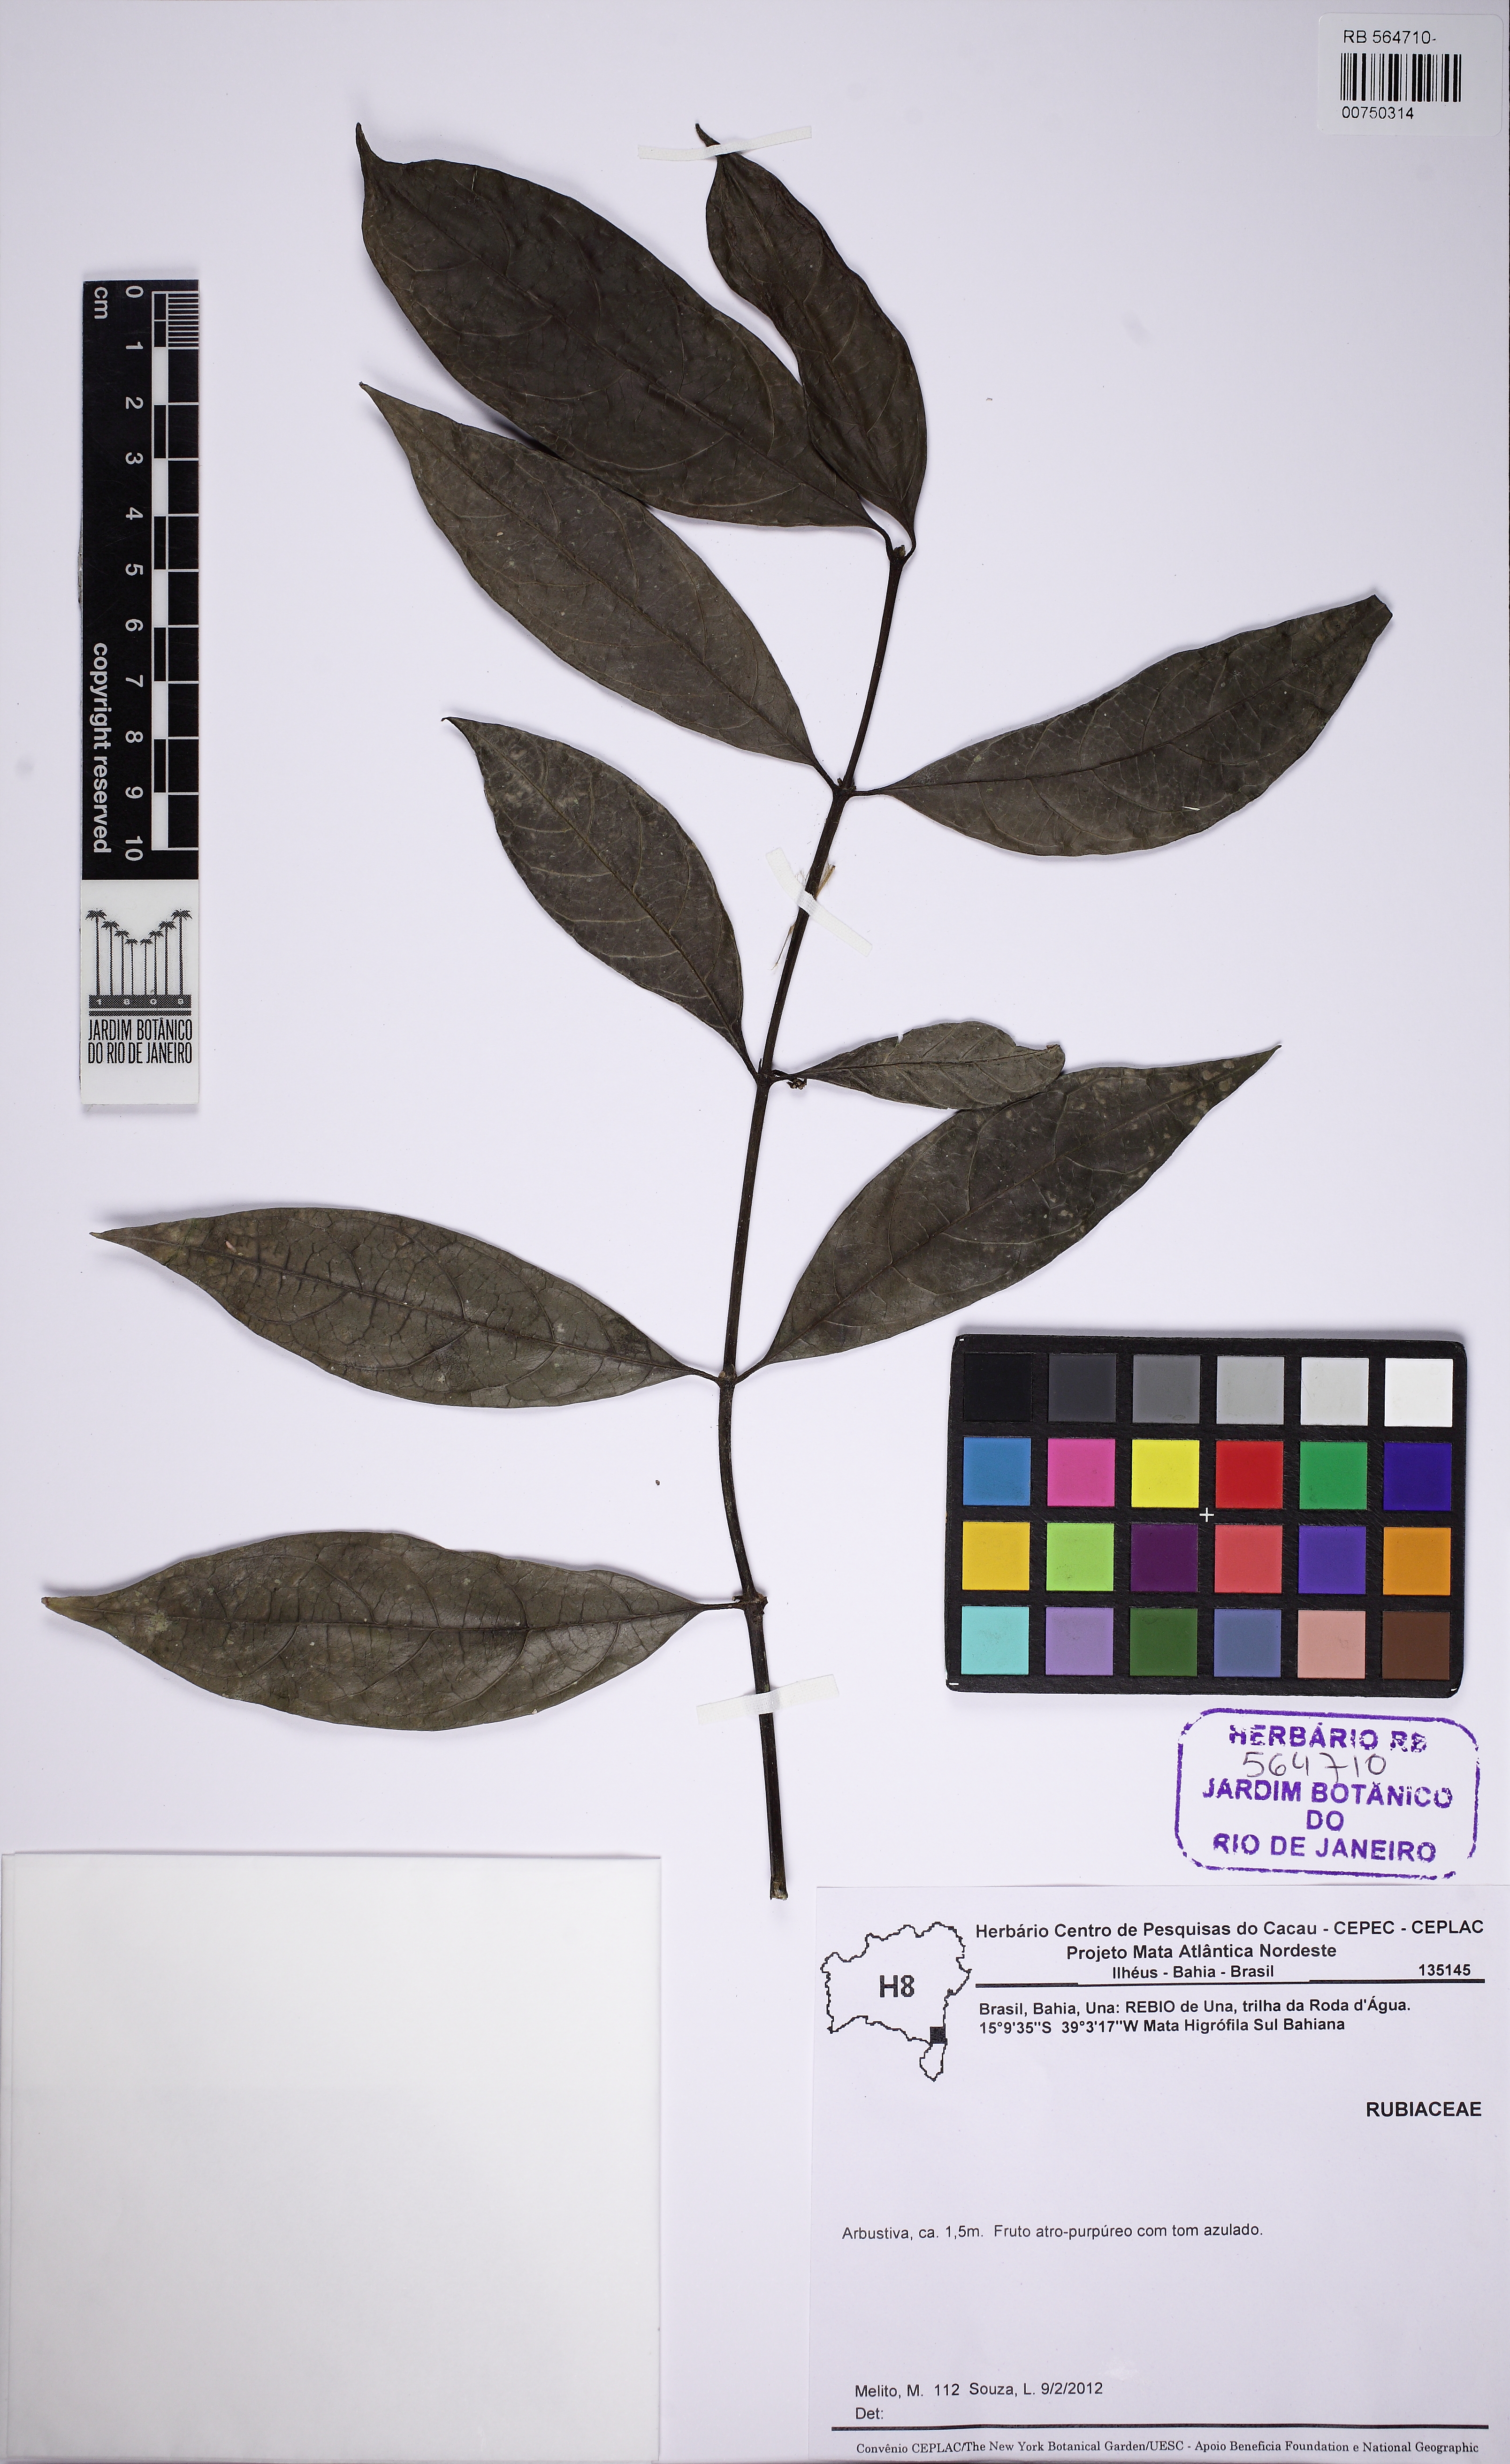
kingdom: Plantae
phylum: Tracheophyta
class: Magnoliopsida
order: Gentianales
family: Rubiaceae
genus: Ronabea
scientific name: Ronabea latifolia
